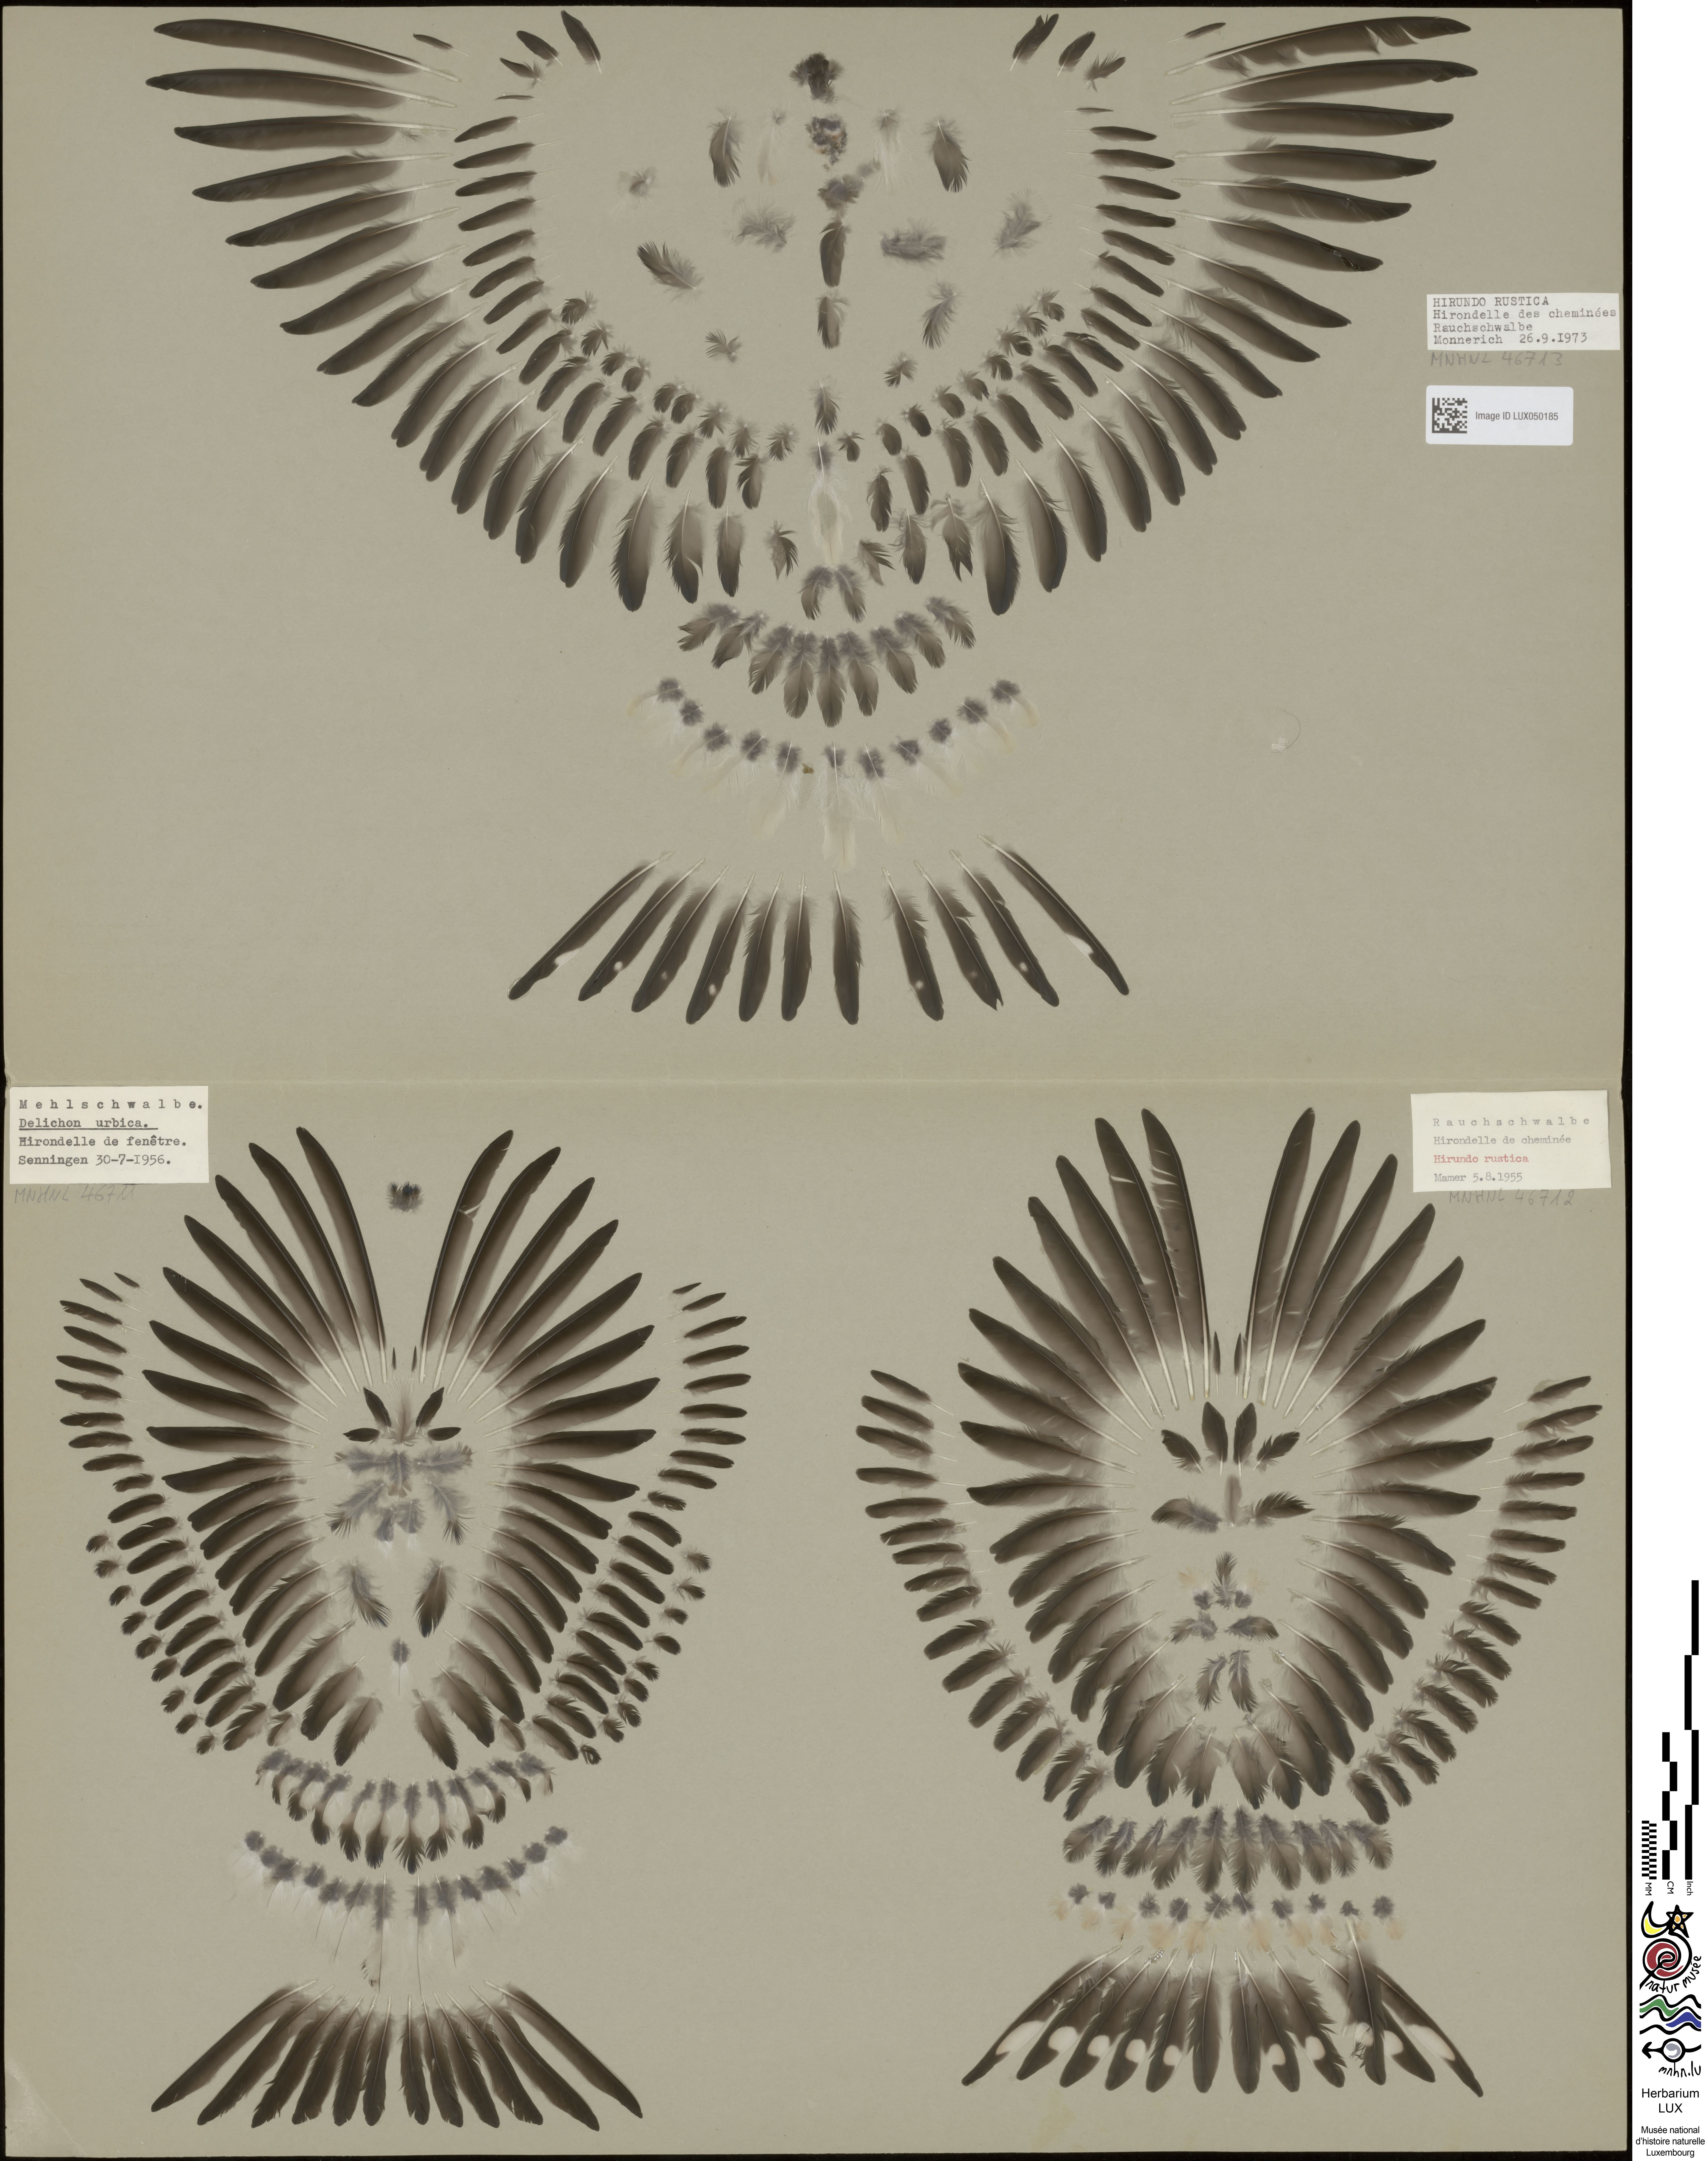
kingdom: Animalia
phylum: Chordata
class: Aves
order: Passeriformes
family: Hirundinidae
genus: Hirundo
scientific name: Hirundo rustica
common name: Barn swallow
